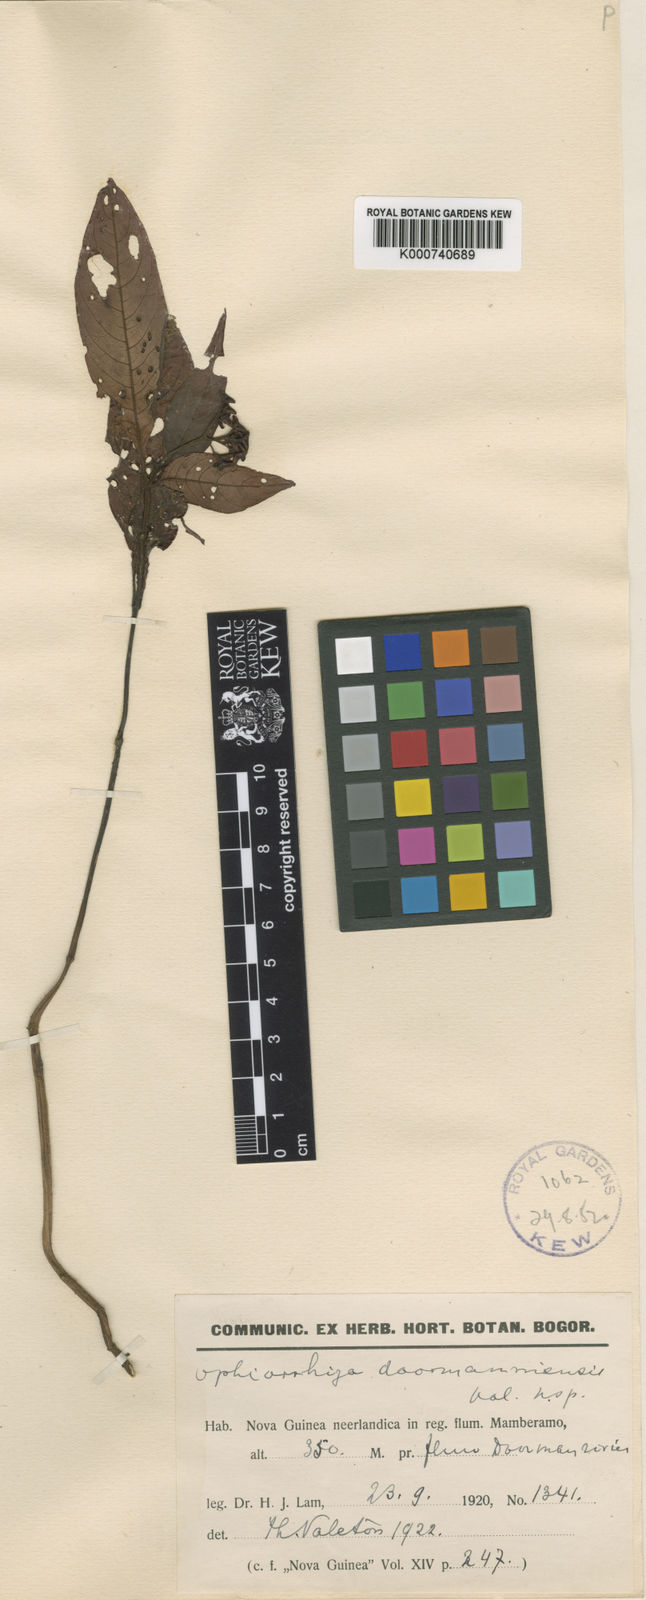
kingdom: Plantae
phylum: Tracheophyta
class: Magnoliopsida
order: Gentianales
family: Rubiaceae
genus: Ophiorrhiza
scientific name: Ophiorrhiza doormanniensis
